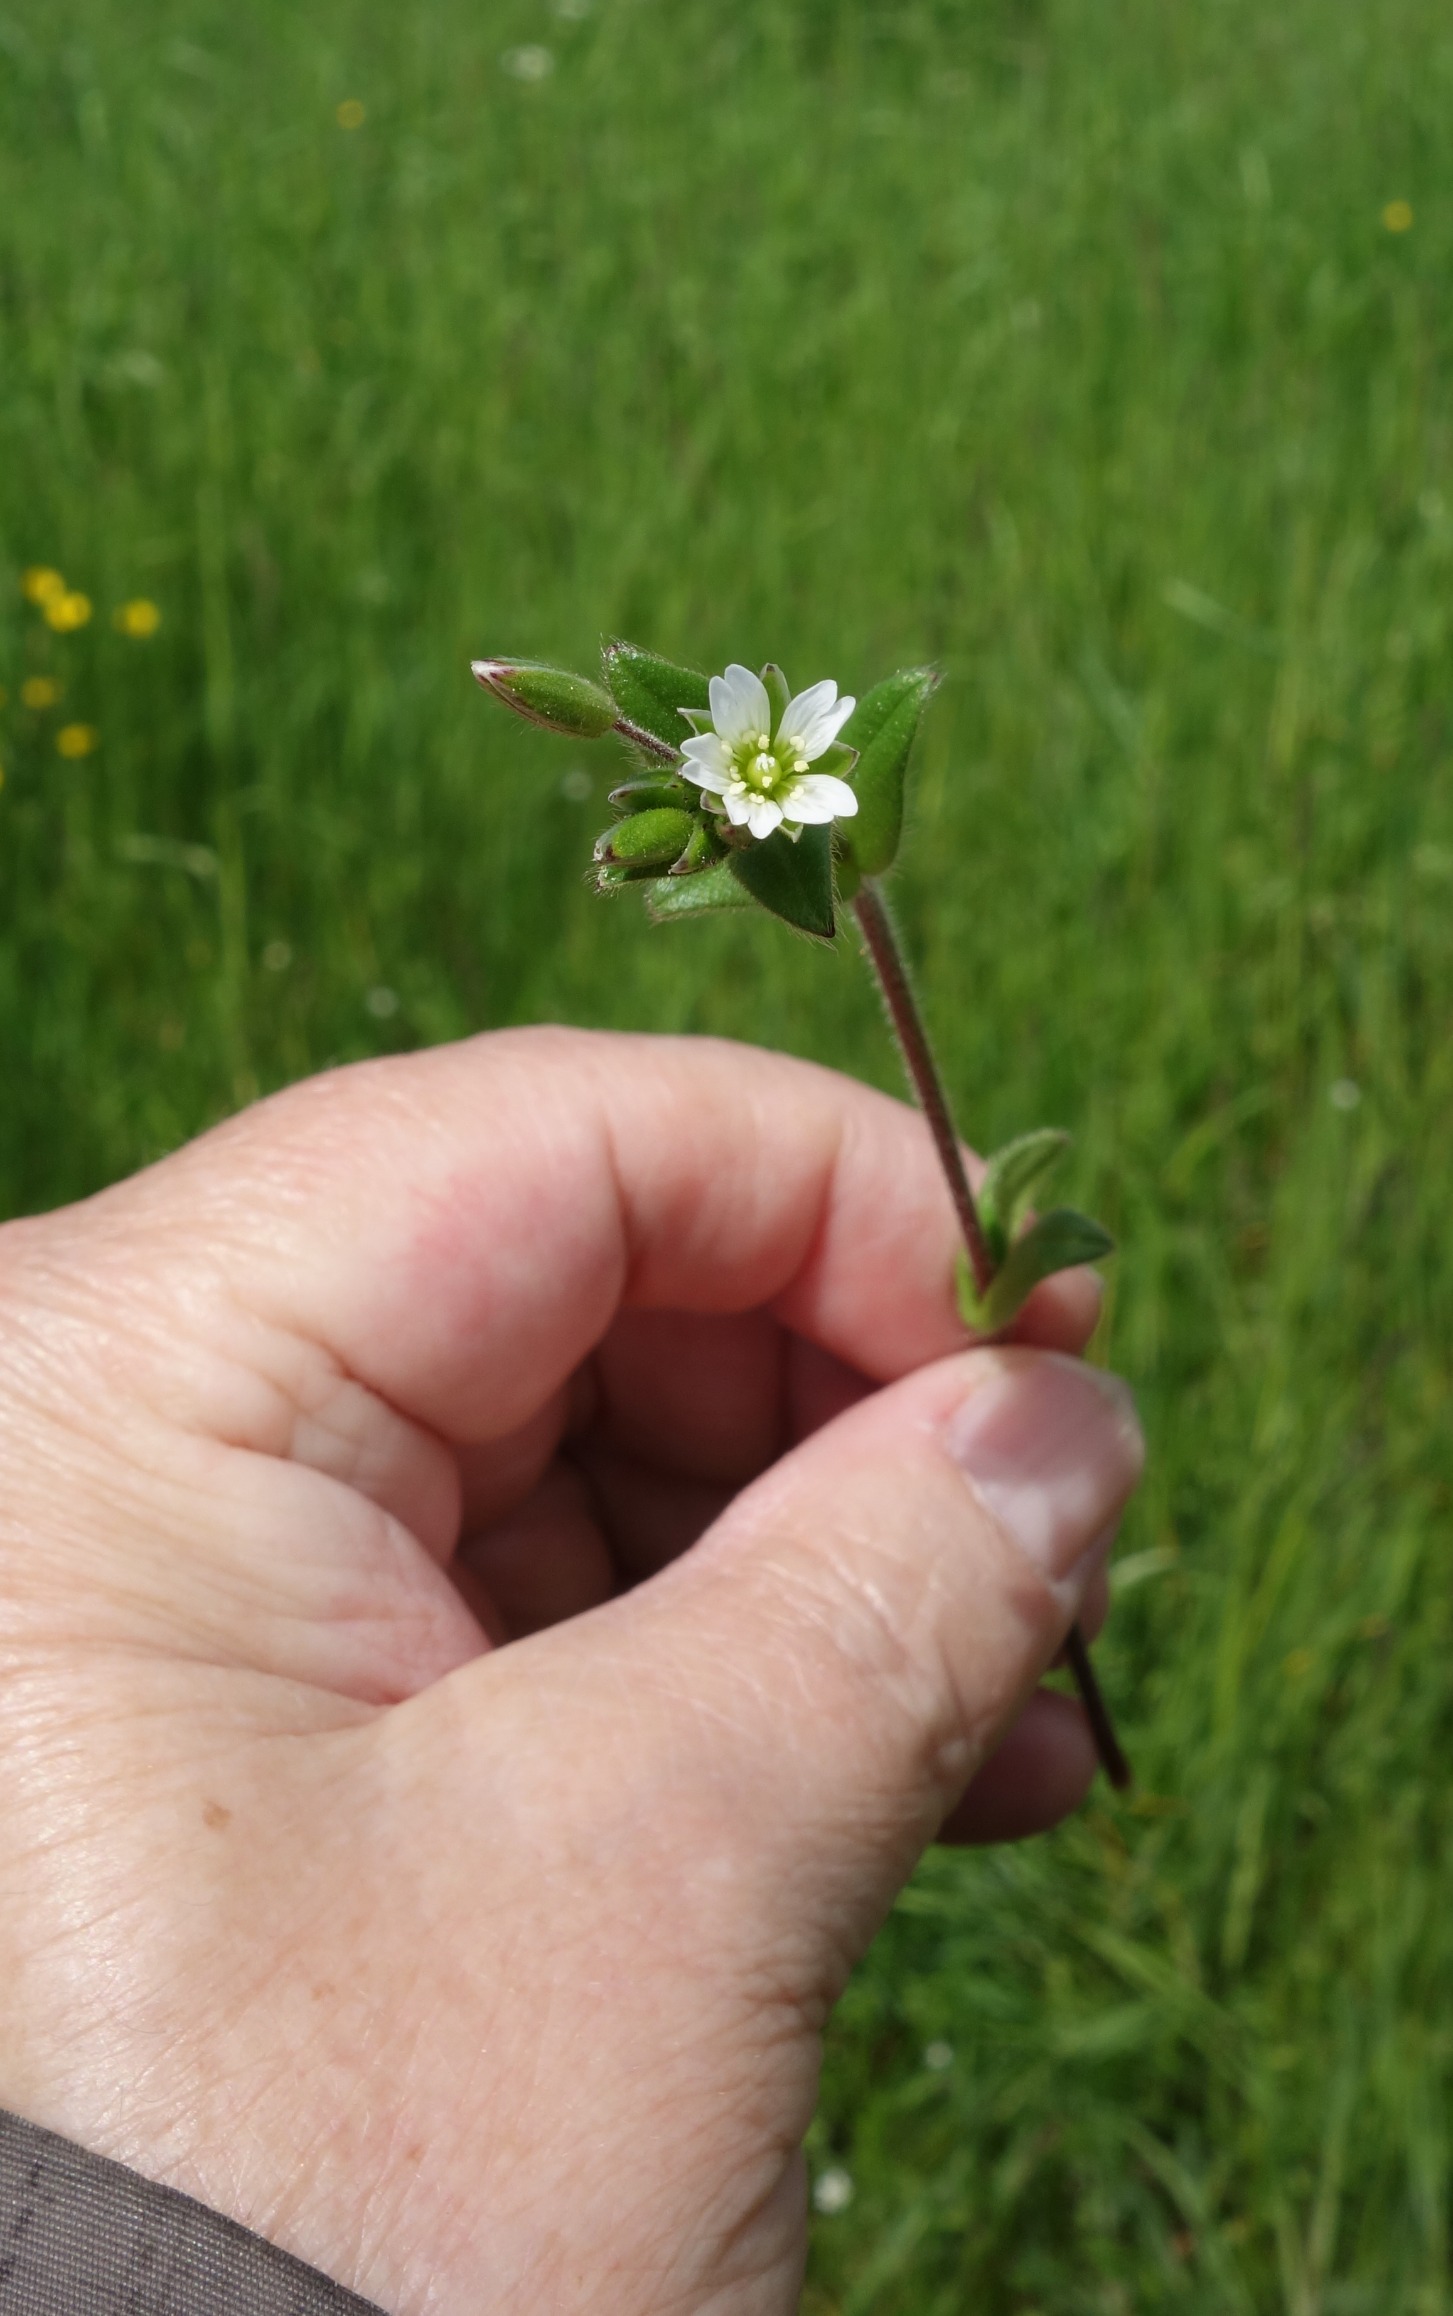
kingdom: Plantae
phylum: Tracheophyta
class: Magnoliopsida
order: Caryophyllales
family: Caryophyllaceae
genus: Cerastium
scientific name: Cerastium fontanum
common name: Almindelig hønsetarm
